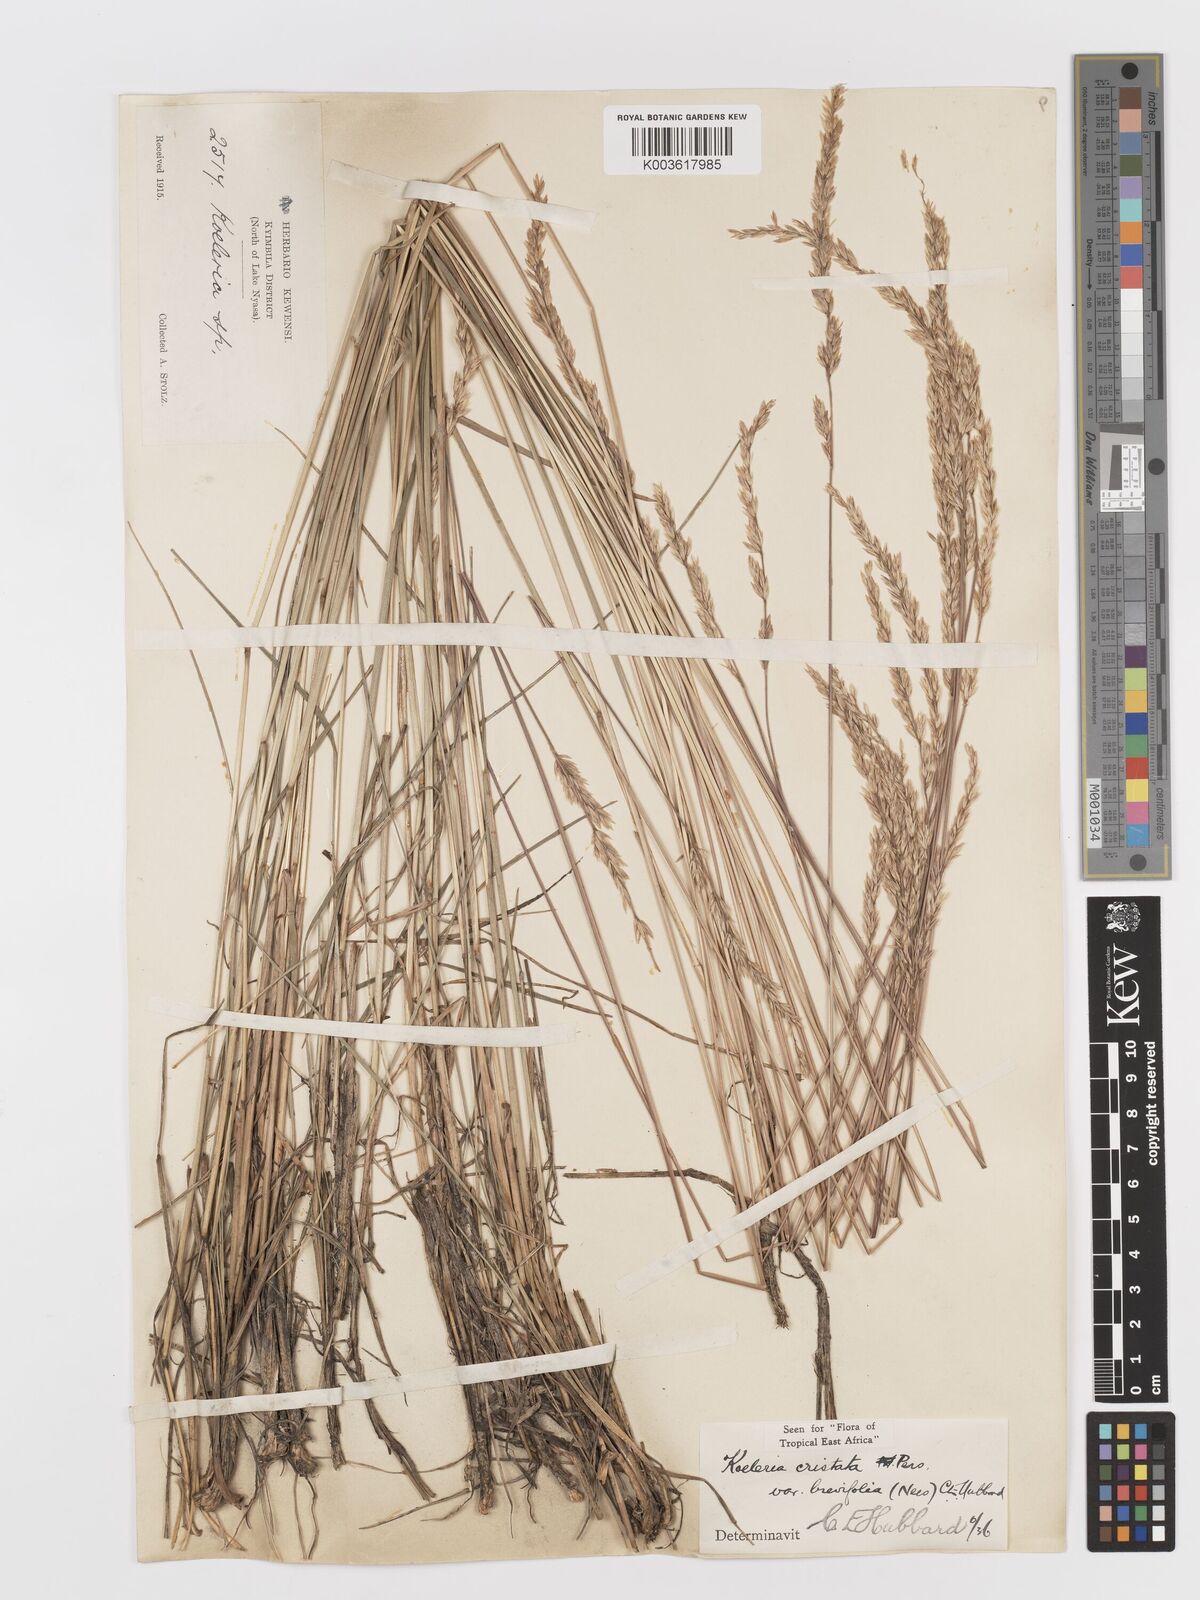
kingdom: Plantae
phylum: Tracheophyta
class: Liliopsida
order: Poales
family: Poaceae
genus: Koeleria
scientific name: Koeleria capensis
